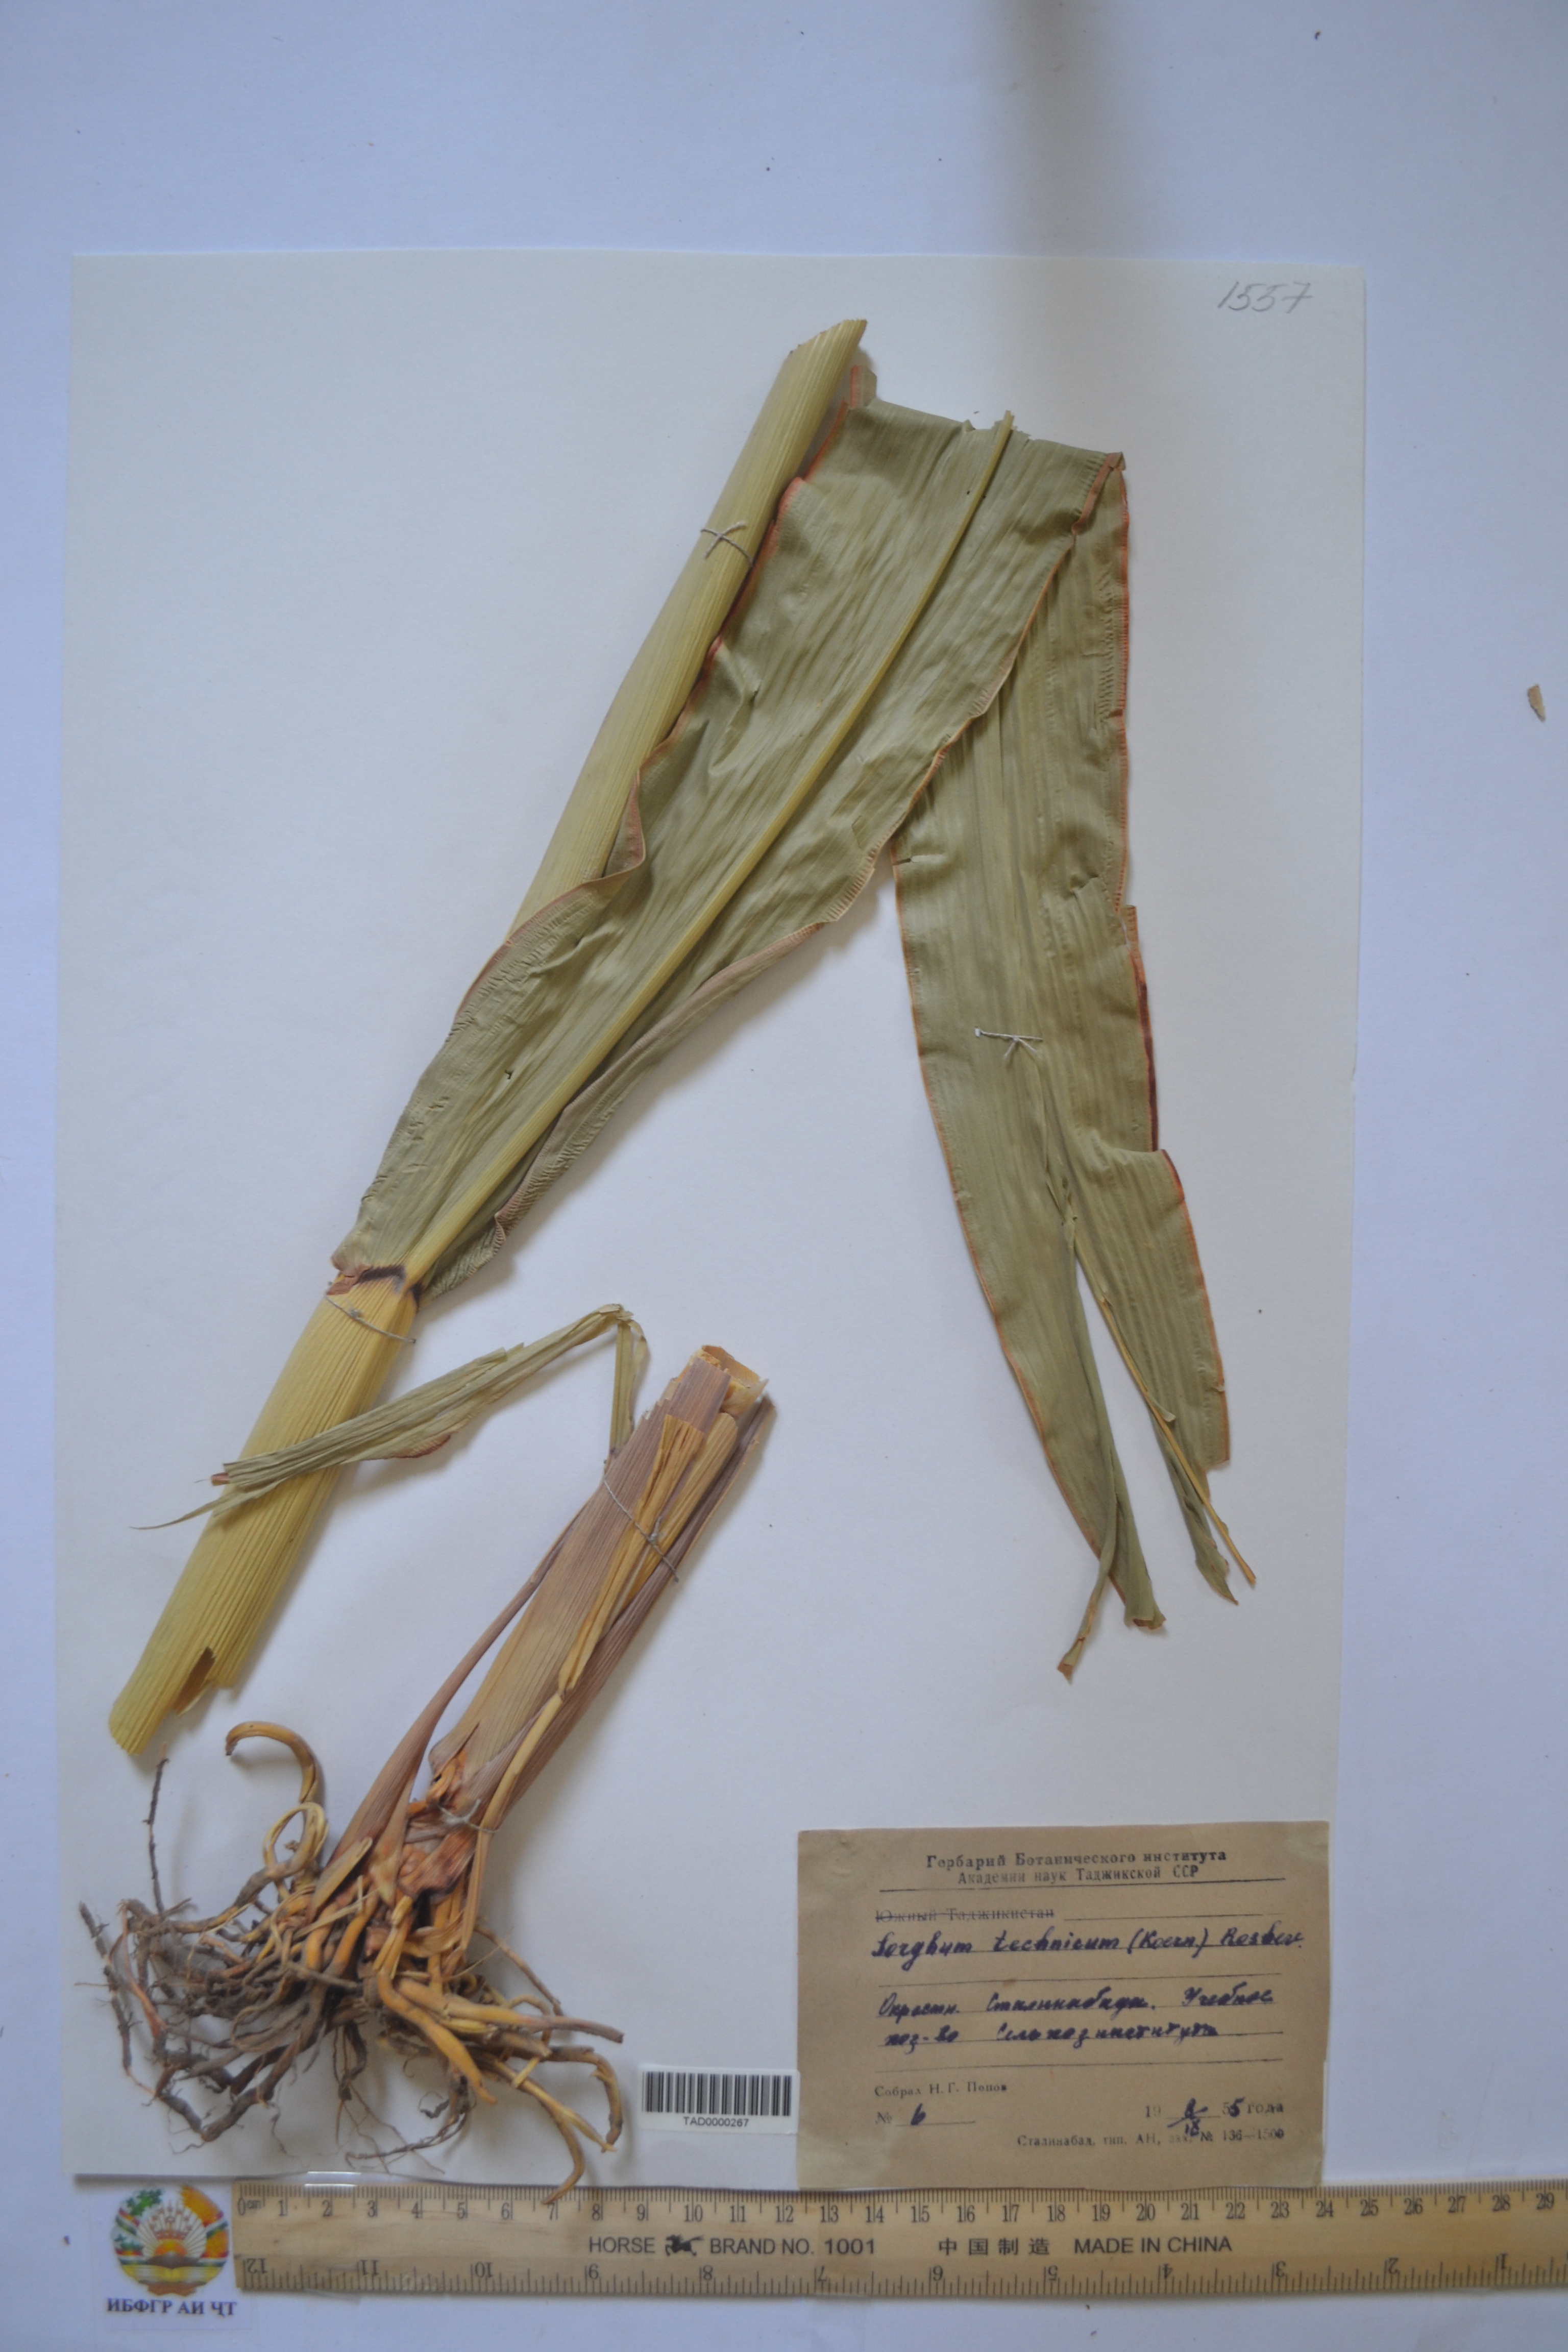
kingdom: Plantae
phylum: Tracheophyta
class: Liliopsida
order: Poales
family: Poaceae
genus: Sorghum
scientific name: Sorghum bicolor
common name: Sorghum
